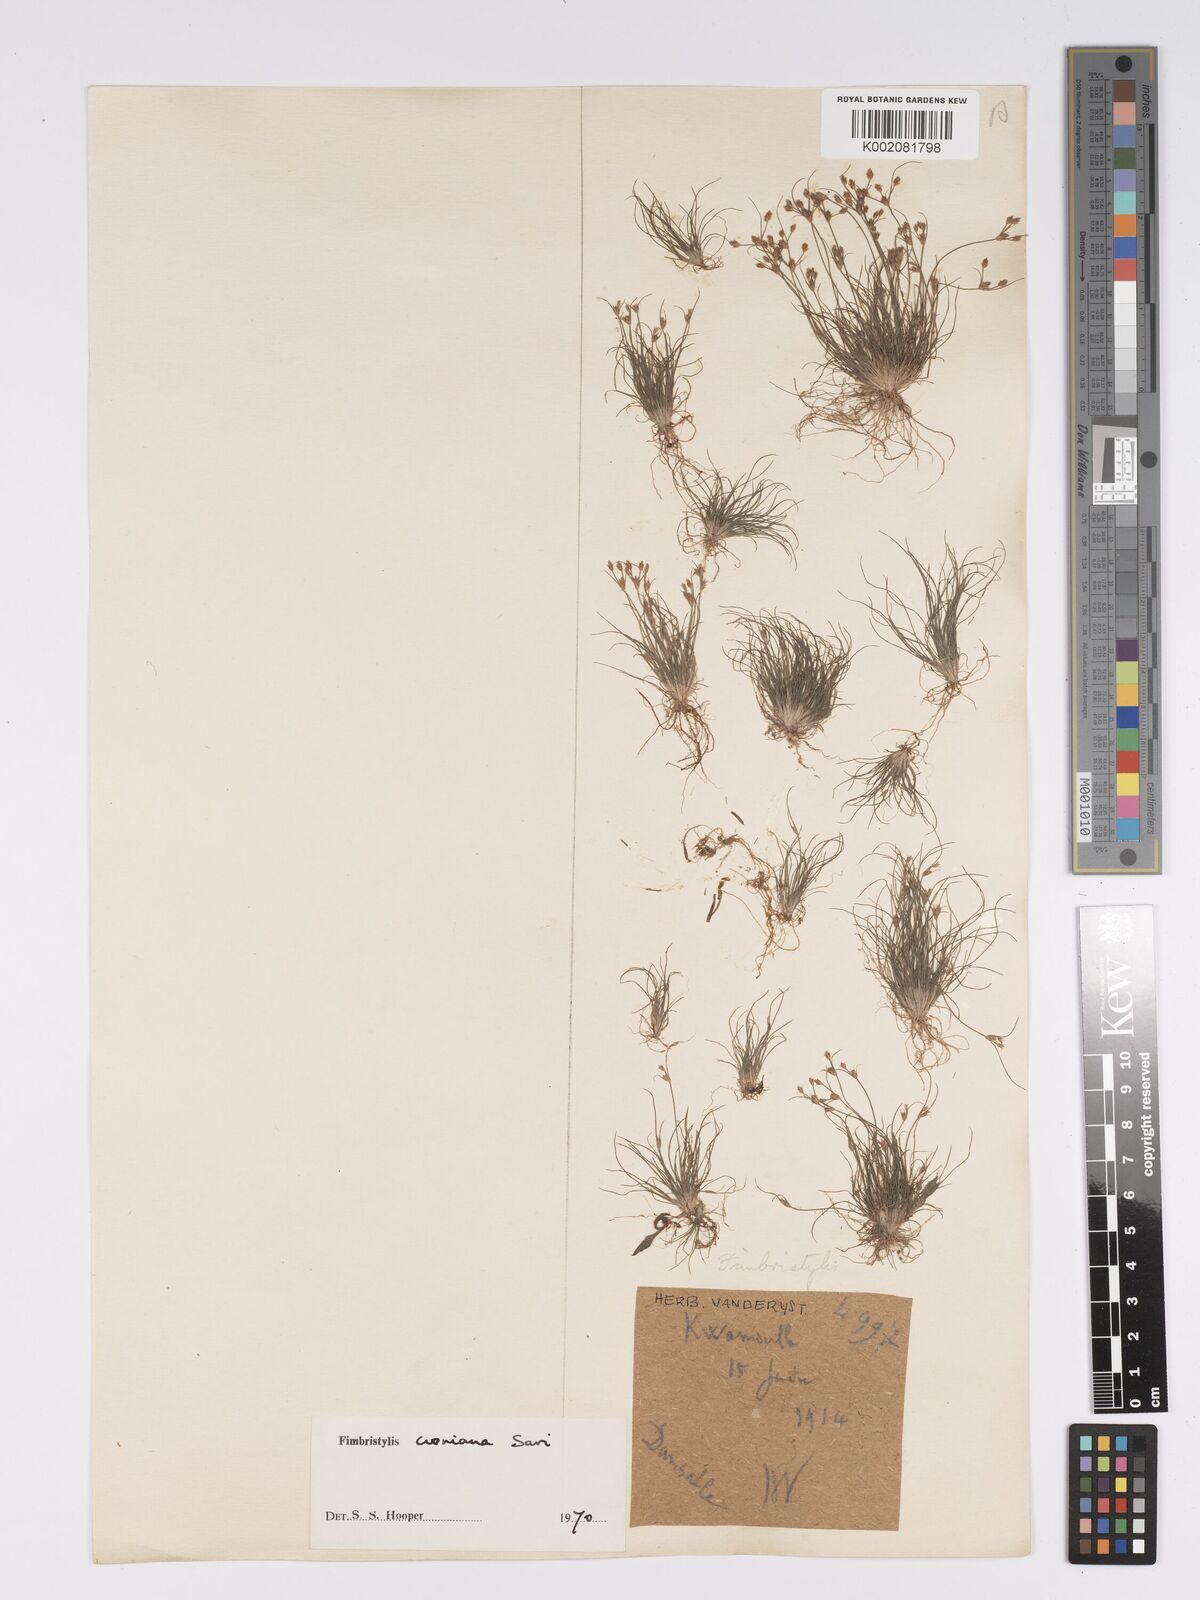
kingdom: Plantae
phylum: Tracheophyta
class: Liliopsida
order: Poales
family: Cyperaceae
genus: Bulbostylis
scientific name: Bulbostylis cioniana
